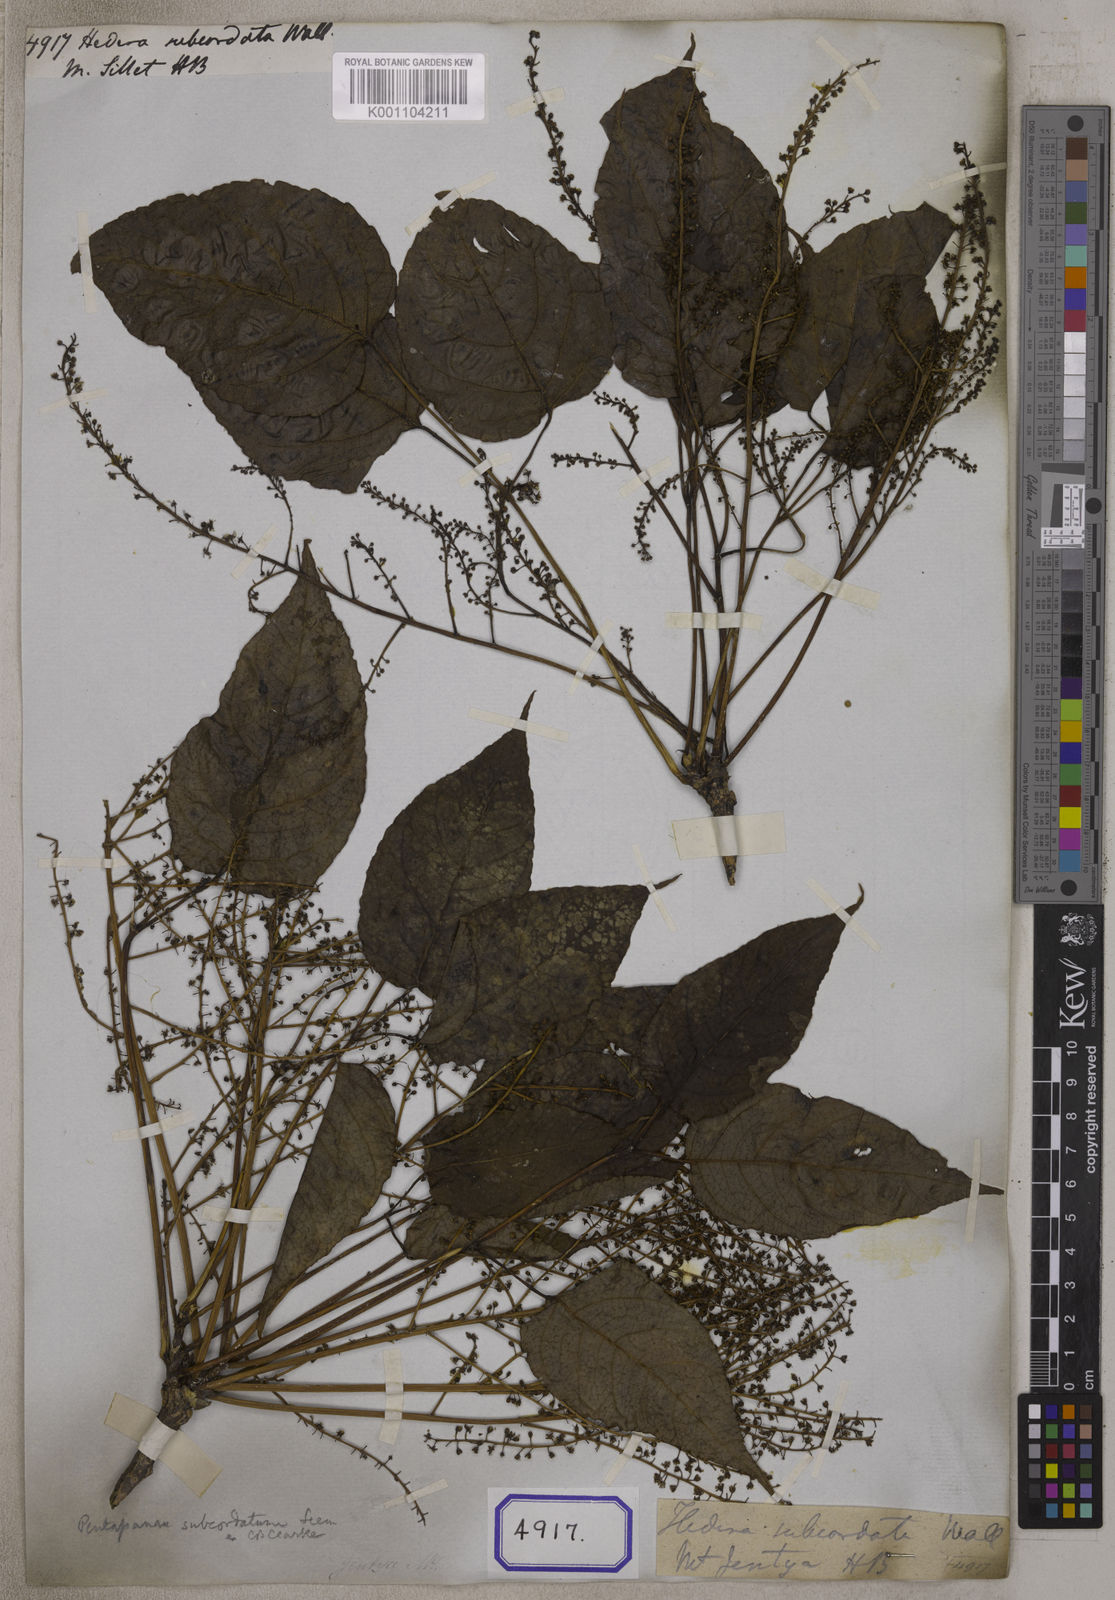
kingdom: Plantae
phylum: Tracheophyta
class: Magnoliopsida
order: Apiales
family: Araliaceae
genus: Hedera
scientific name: Hedera
